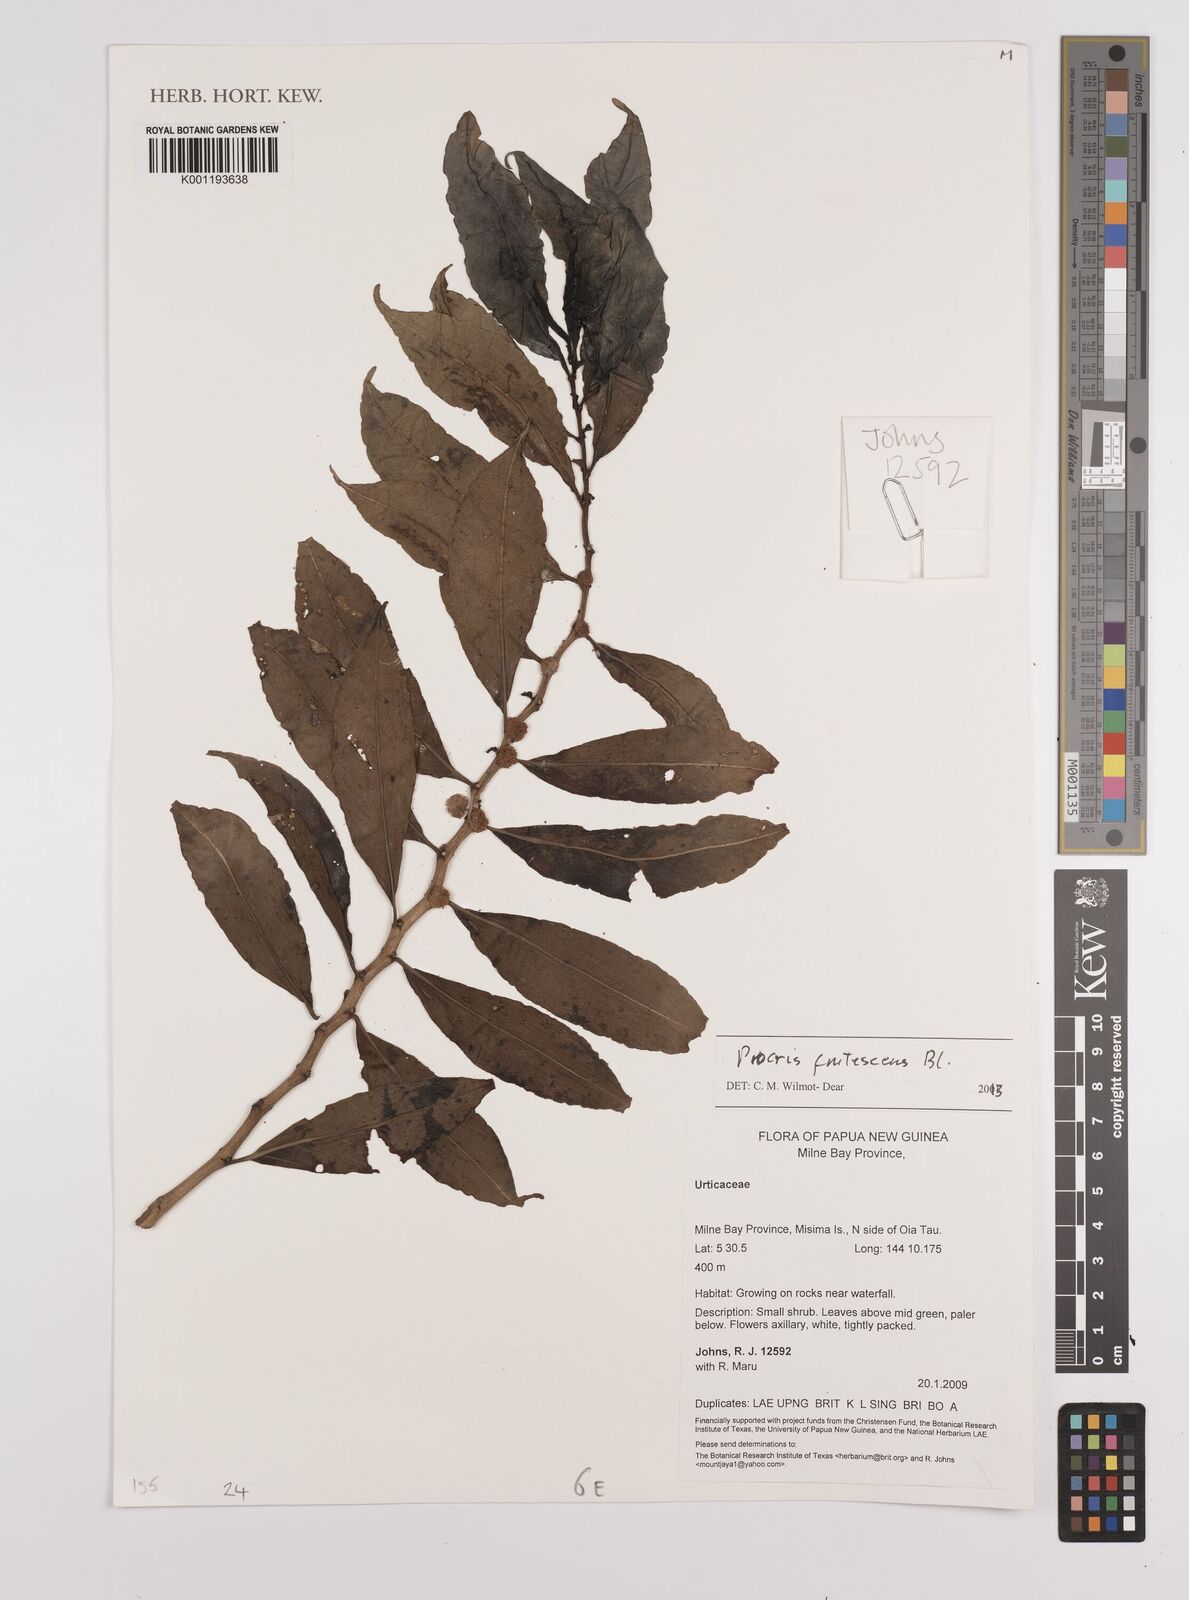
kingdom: Plantae
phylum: Tracheophyta
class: Magnoliopsida
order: Rosales
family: Urticaceae
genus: Procris
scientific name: Procris frutescens
